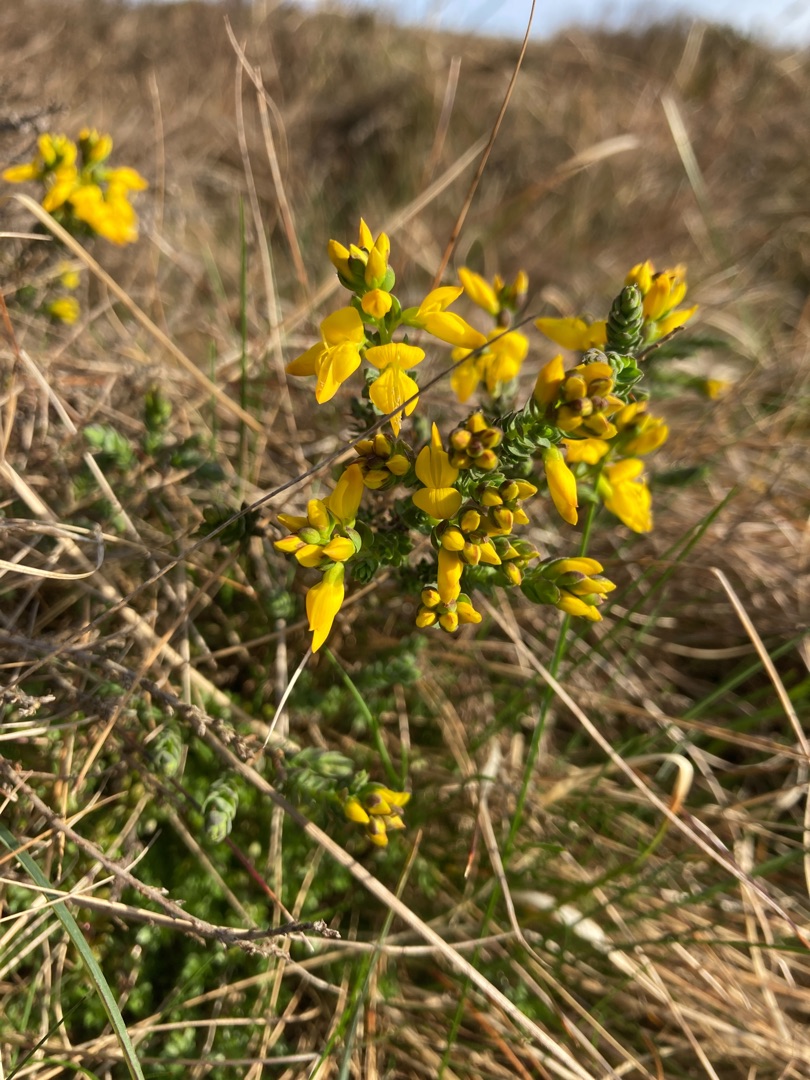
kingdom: Plantae
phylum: Tracheophyta
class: Magnoliopsida
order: Fabales
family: Fabaceae
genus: Genista
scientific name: Genista anglica
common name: Engelsk visse
